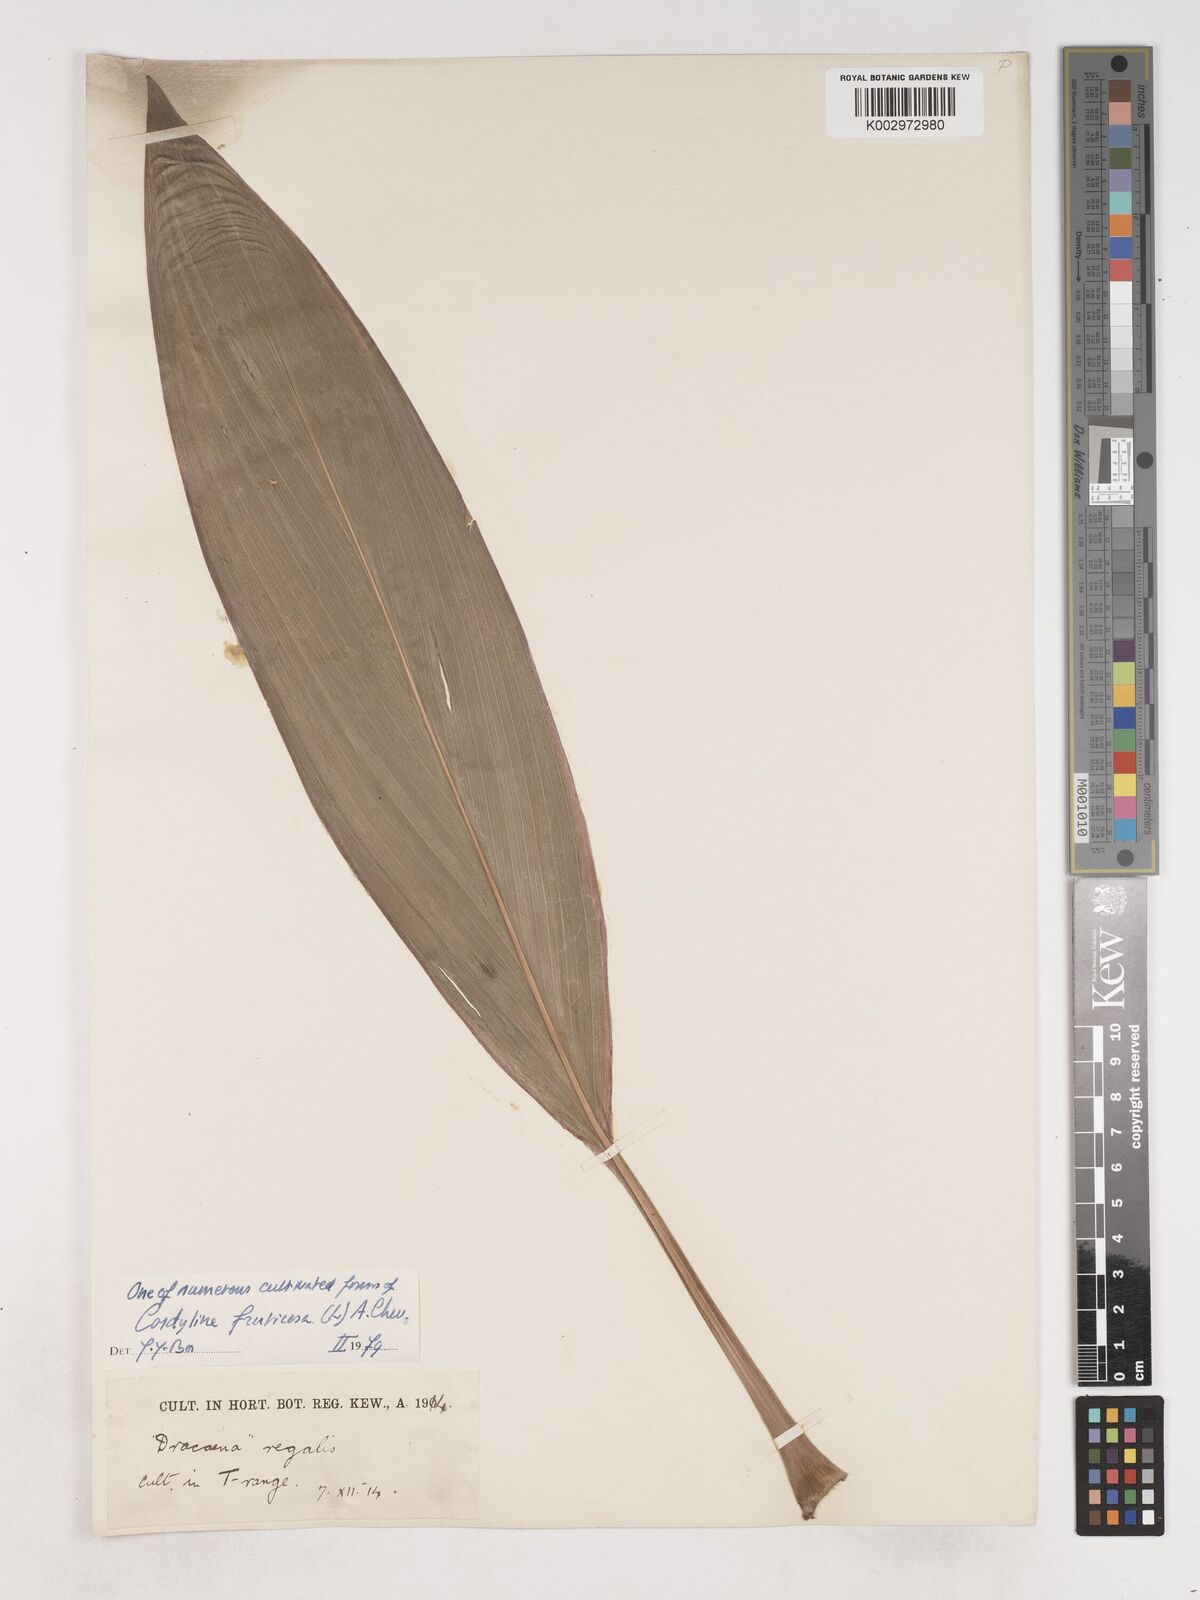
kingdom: Plantae
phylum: Tracheophyta
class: Liliopsida
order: Asparagales
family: Asparagaceae
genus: Cordyline
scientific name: Cordyline fruticosa
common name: Good-luck-plant
